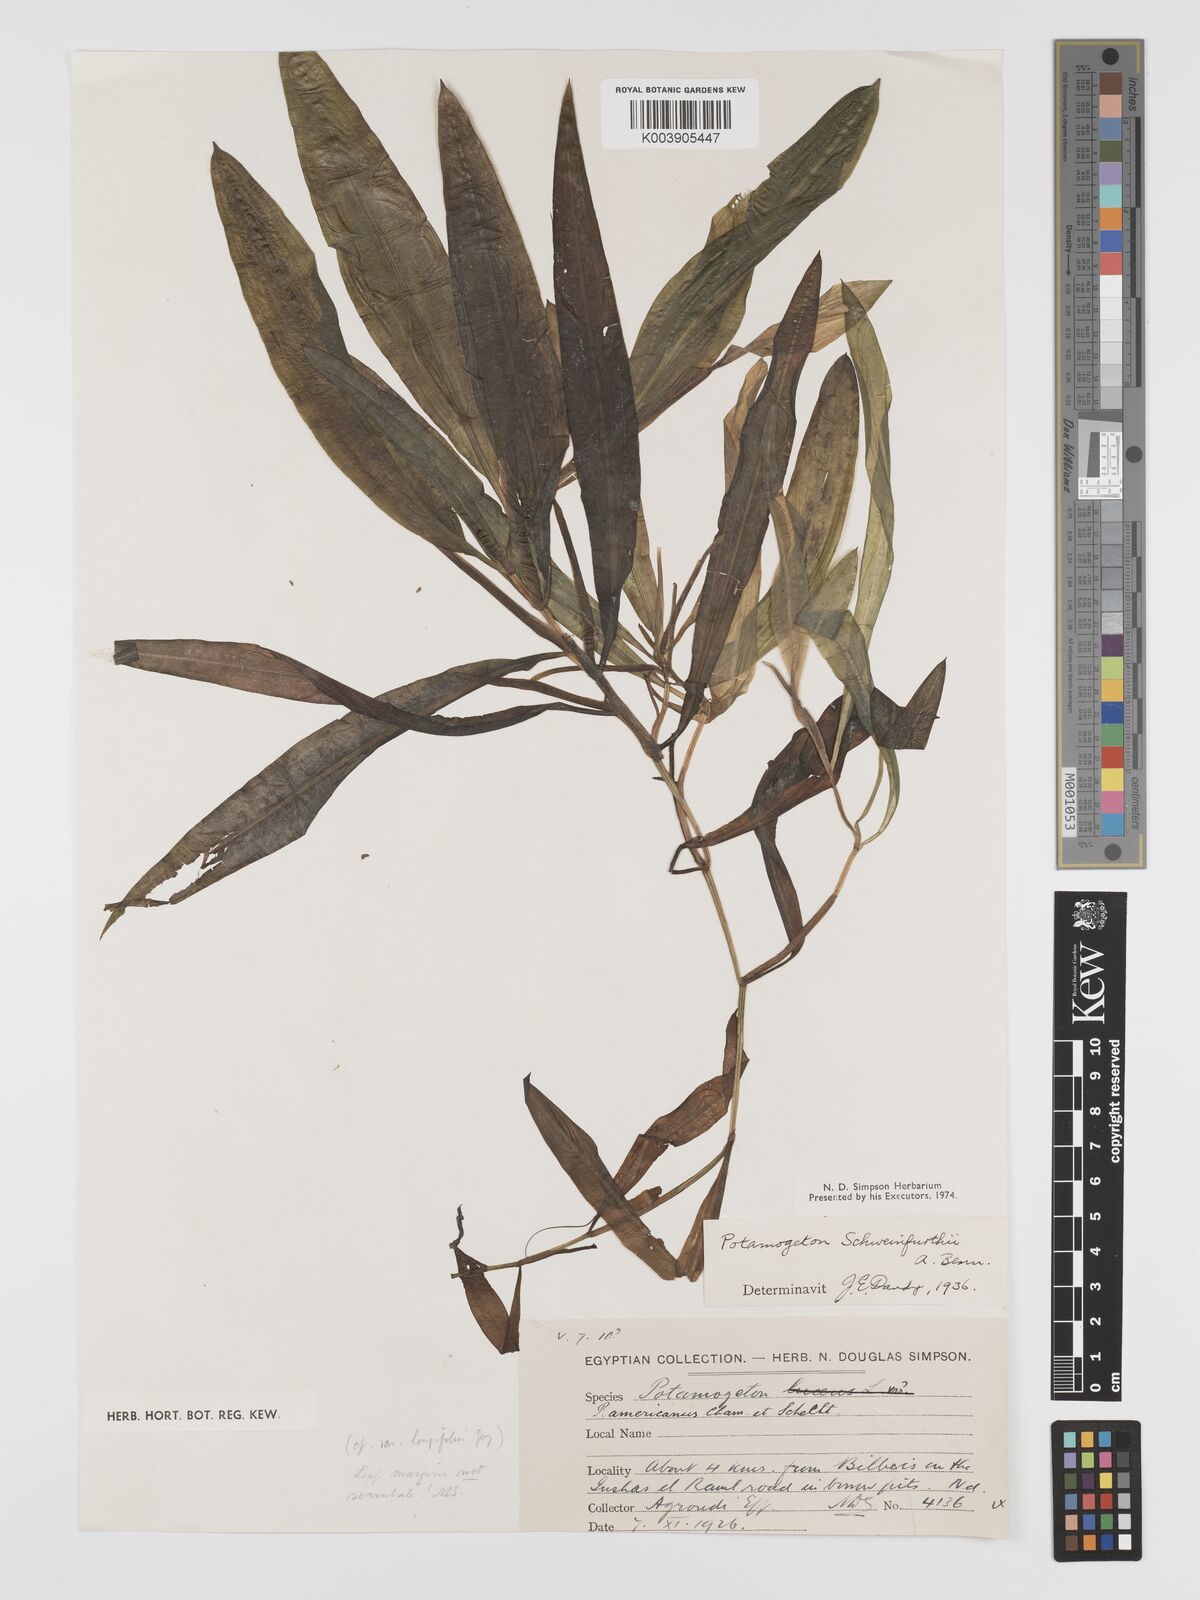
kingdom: Plantae
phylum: Tracheophyta
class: Liliopsida
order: Alismatales
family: Potamogetonaceae
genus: Potamogeton
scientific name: Potamogeton schweinfurthii
